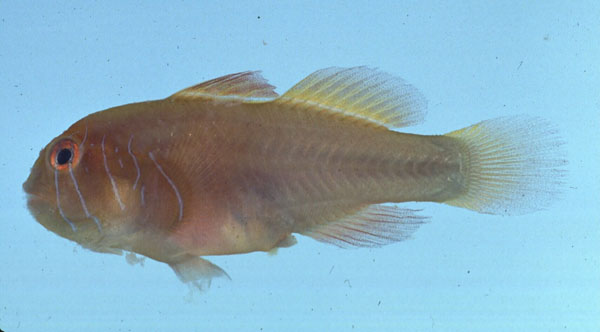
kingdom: Animalia
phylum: Chordata
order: Perciformes
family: Gobiidae
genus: Gobiodon
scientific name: Gobiodon quinquestrigatus
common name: Five-bar coralgoby
